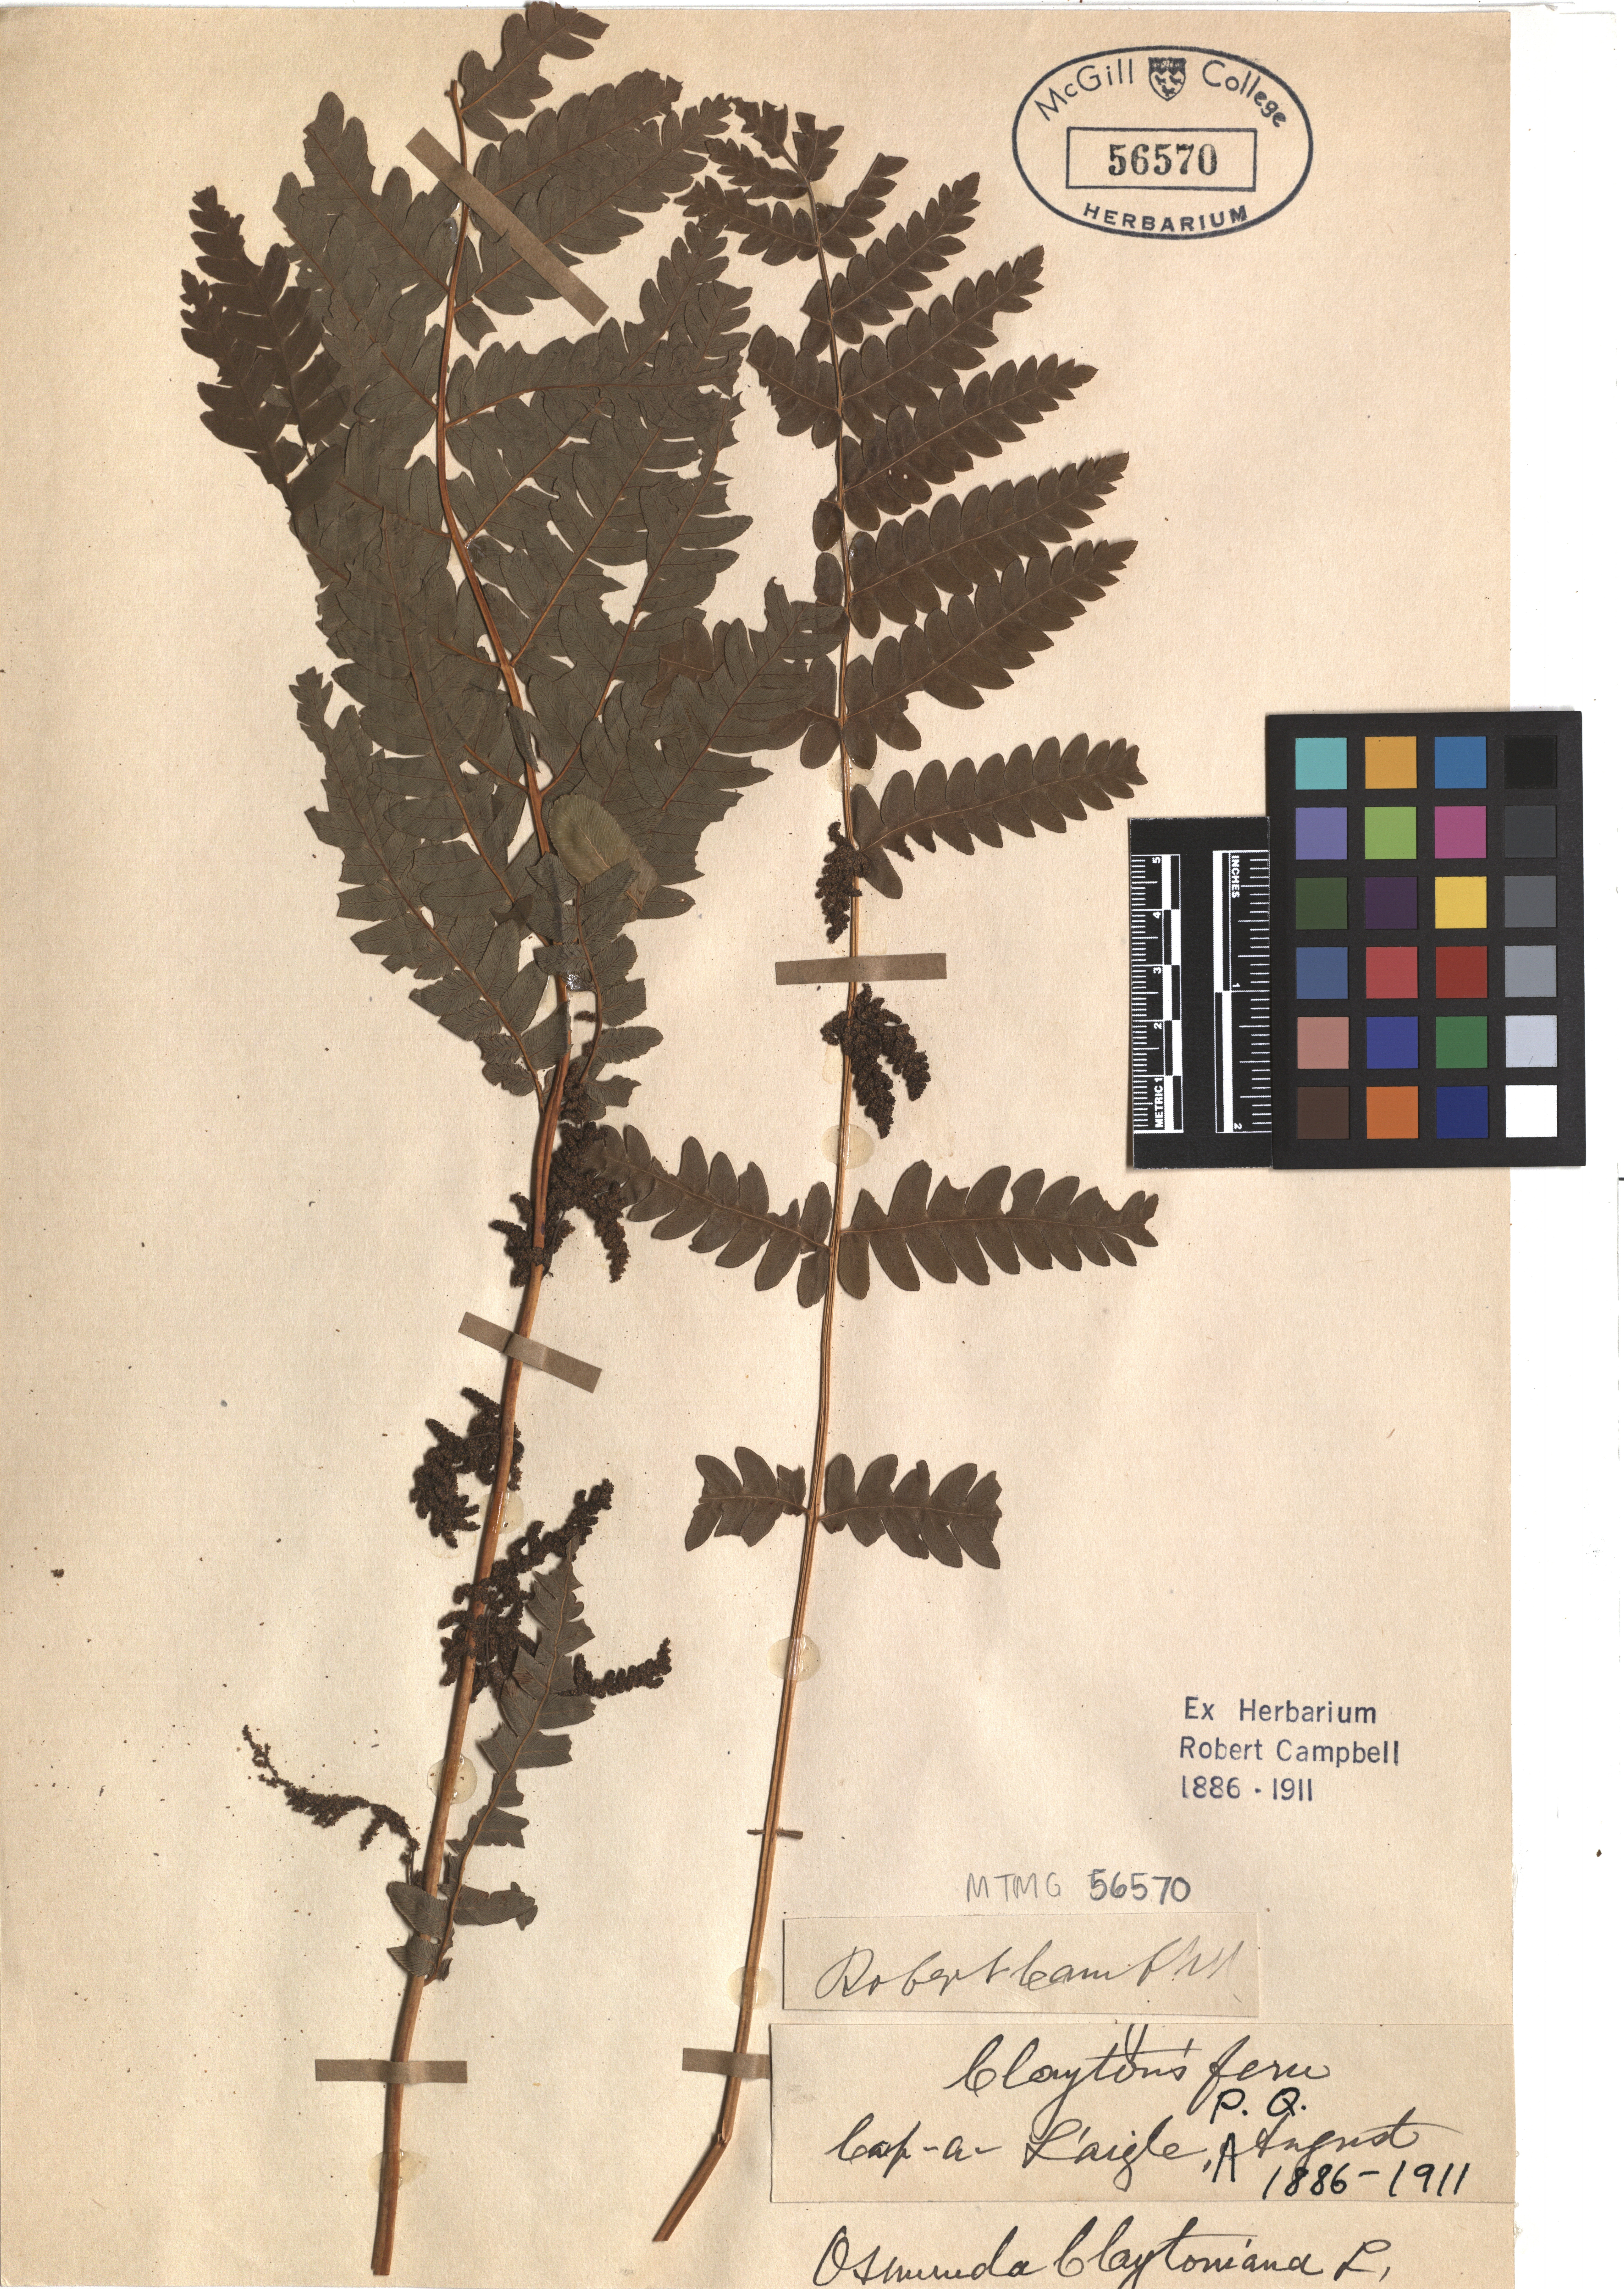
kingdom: Plantae
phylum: Tracheophyta
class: Polypodiopsida
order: Osmundales
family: Osmundaceae
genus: Claytosmunda
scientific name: Claytosmunda claytoniana
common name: Clayton's fern
